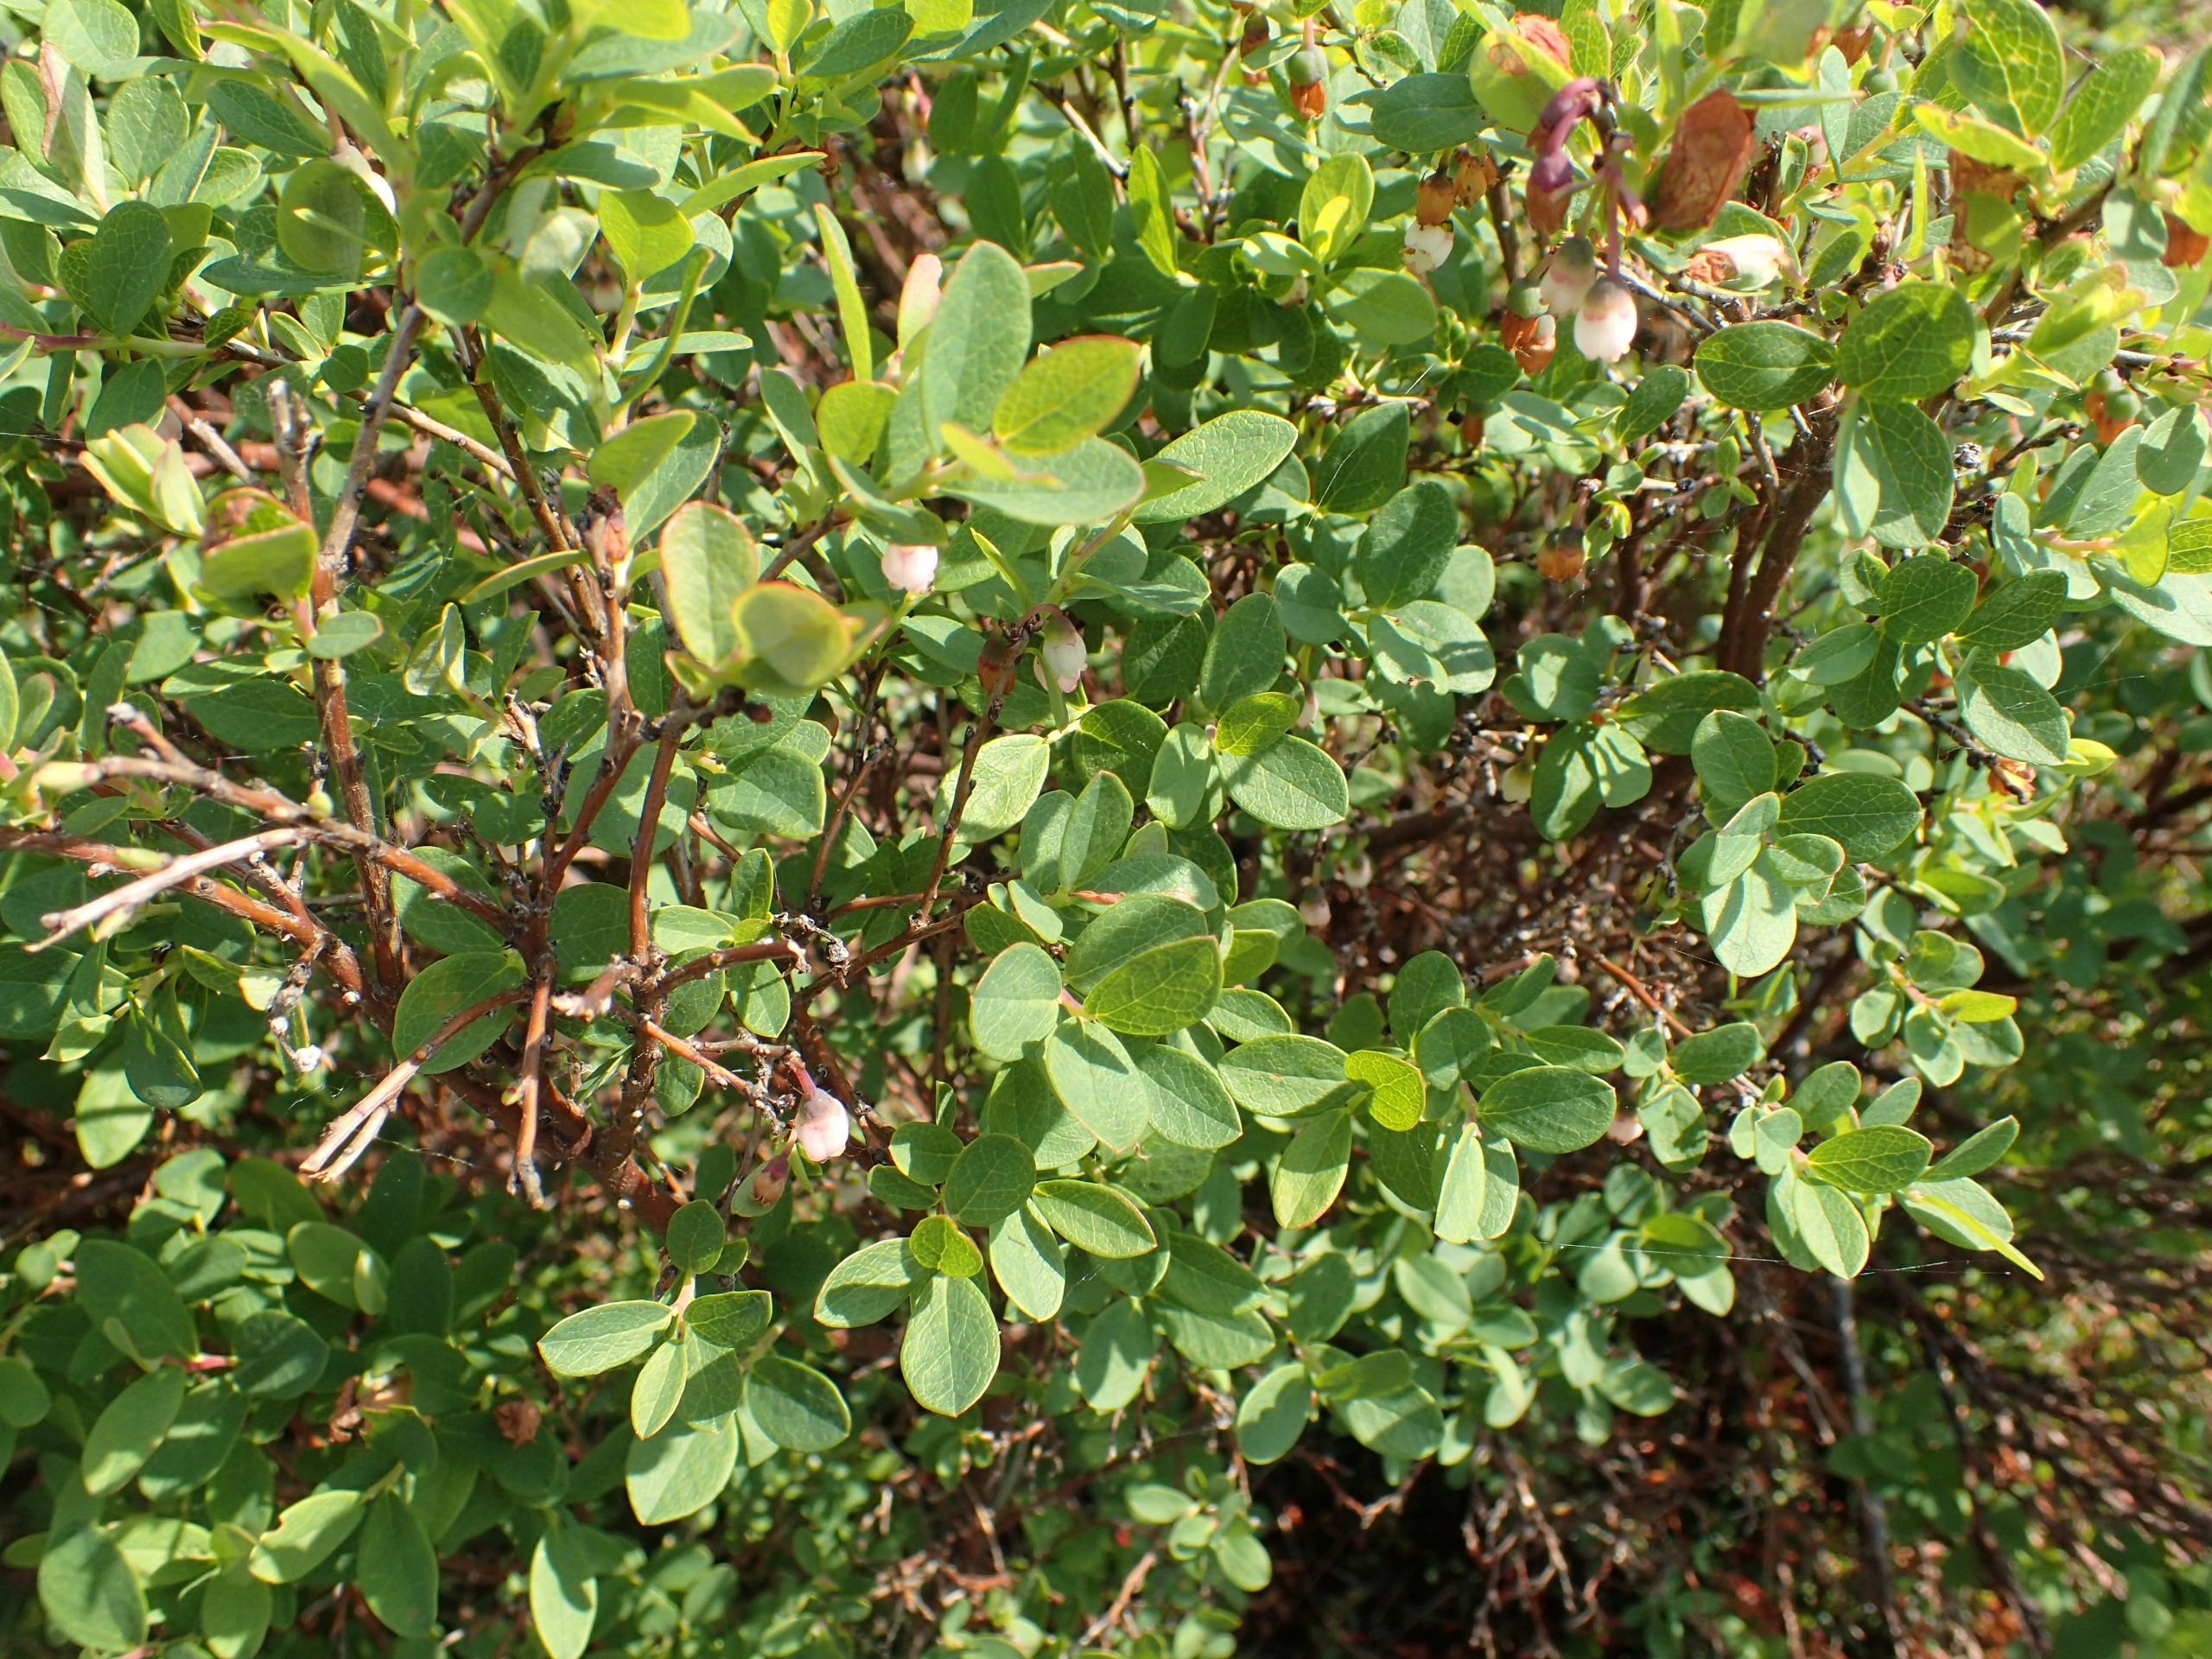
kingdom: Plantae
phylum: Tracheophyta
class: Magnoliopsida
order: Ericales
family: Ericaceae
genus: Vaccinium
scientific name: Vaccinium uliginosum
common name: Mose-bølle
